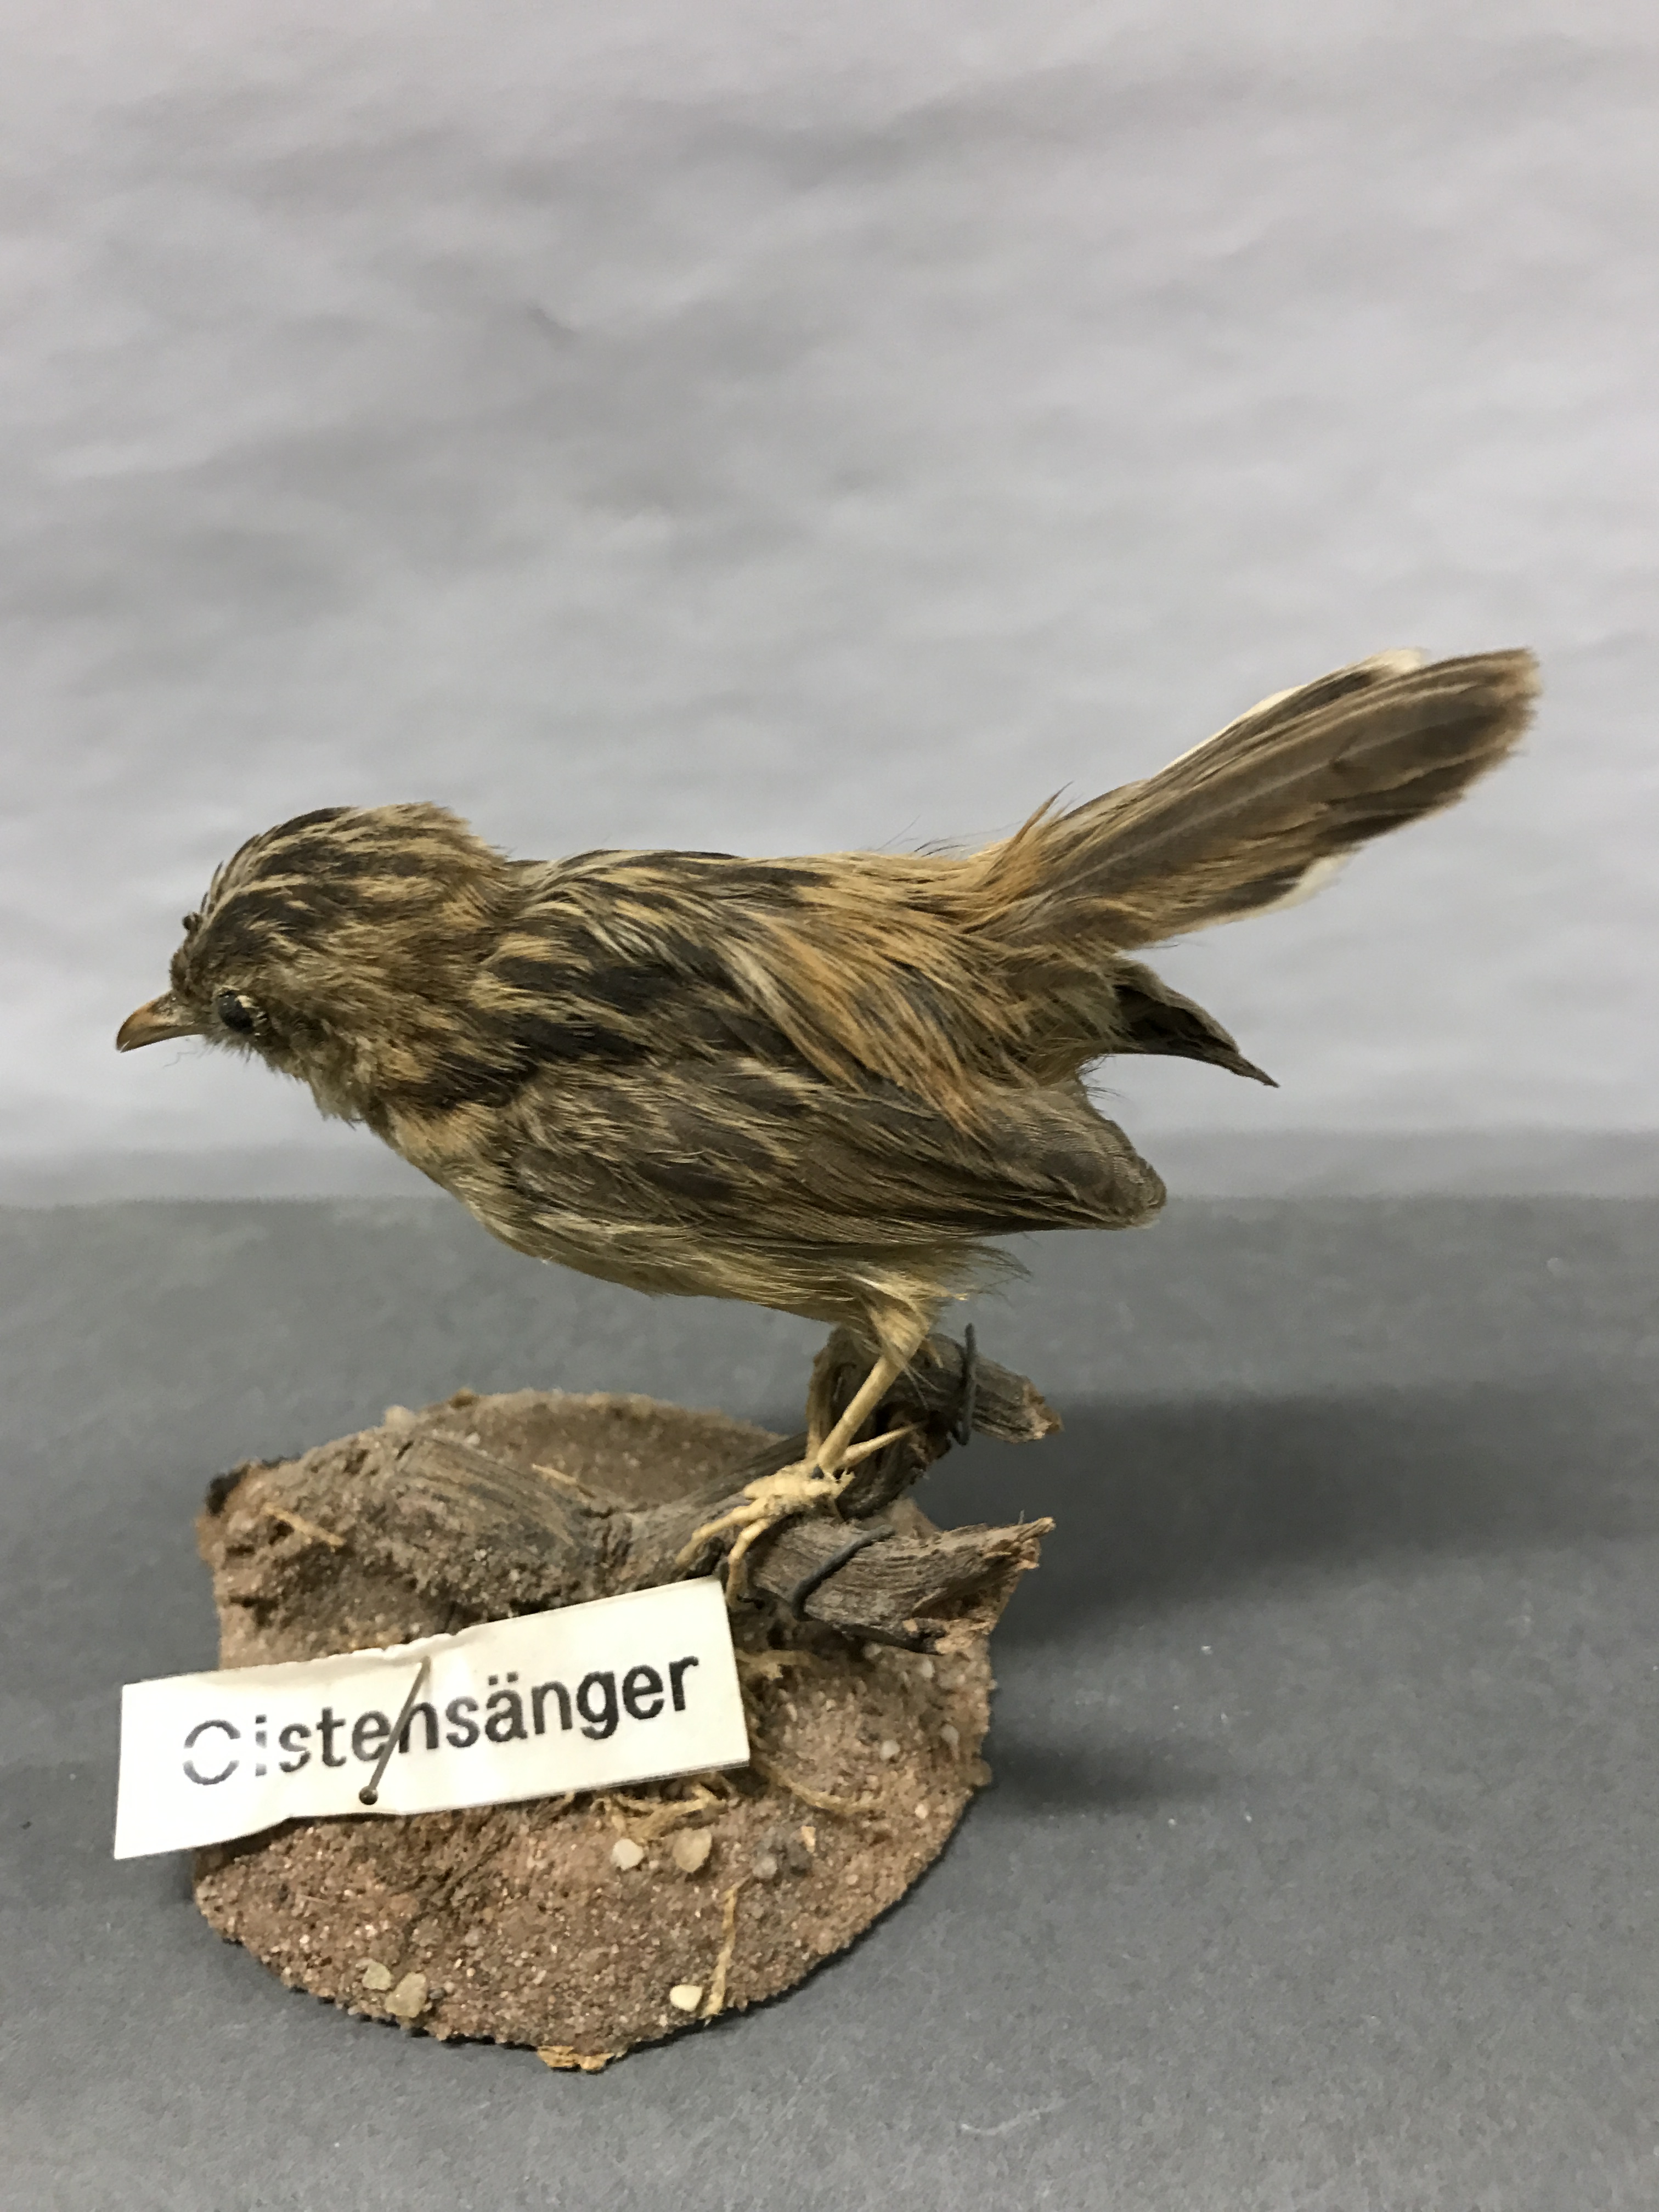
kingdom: Animalia
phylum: Chordata
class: Aves
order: Passeriformes
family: Cisticolidae
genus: Cisticola
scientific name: Cisticola juncidis
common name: Zitting cisticola
